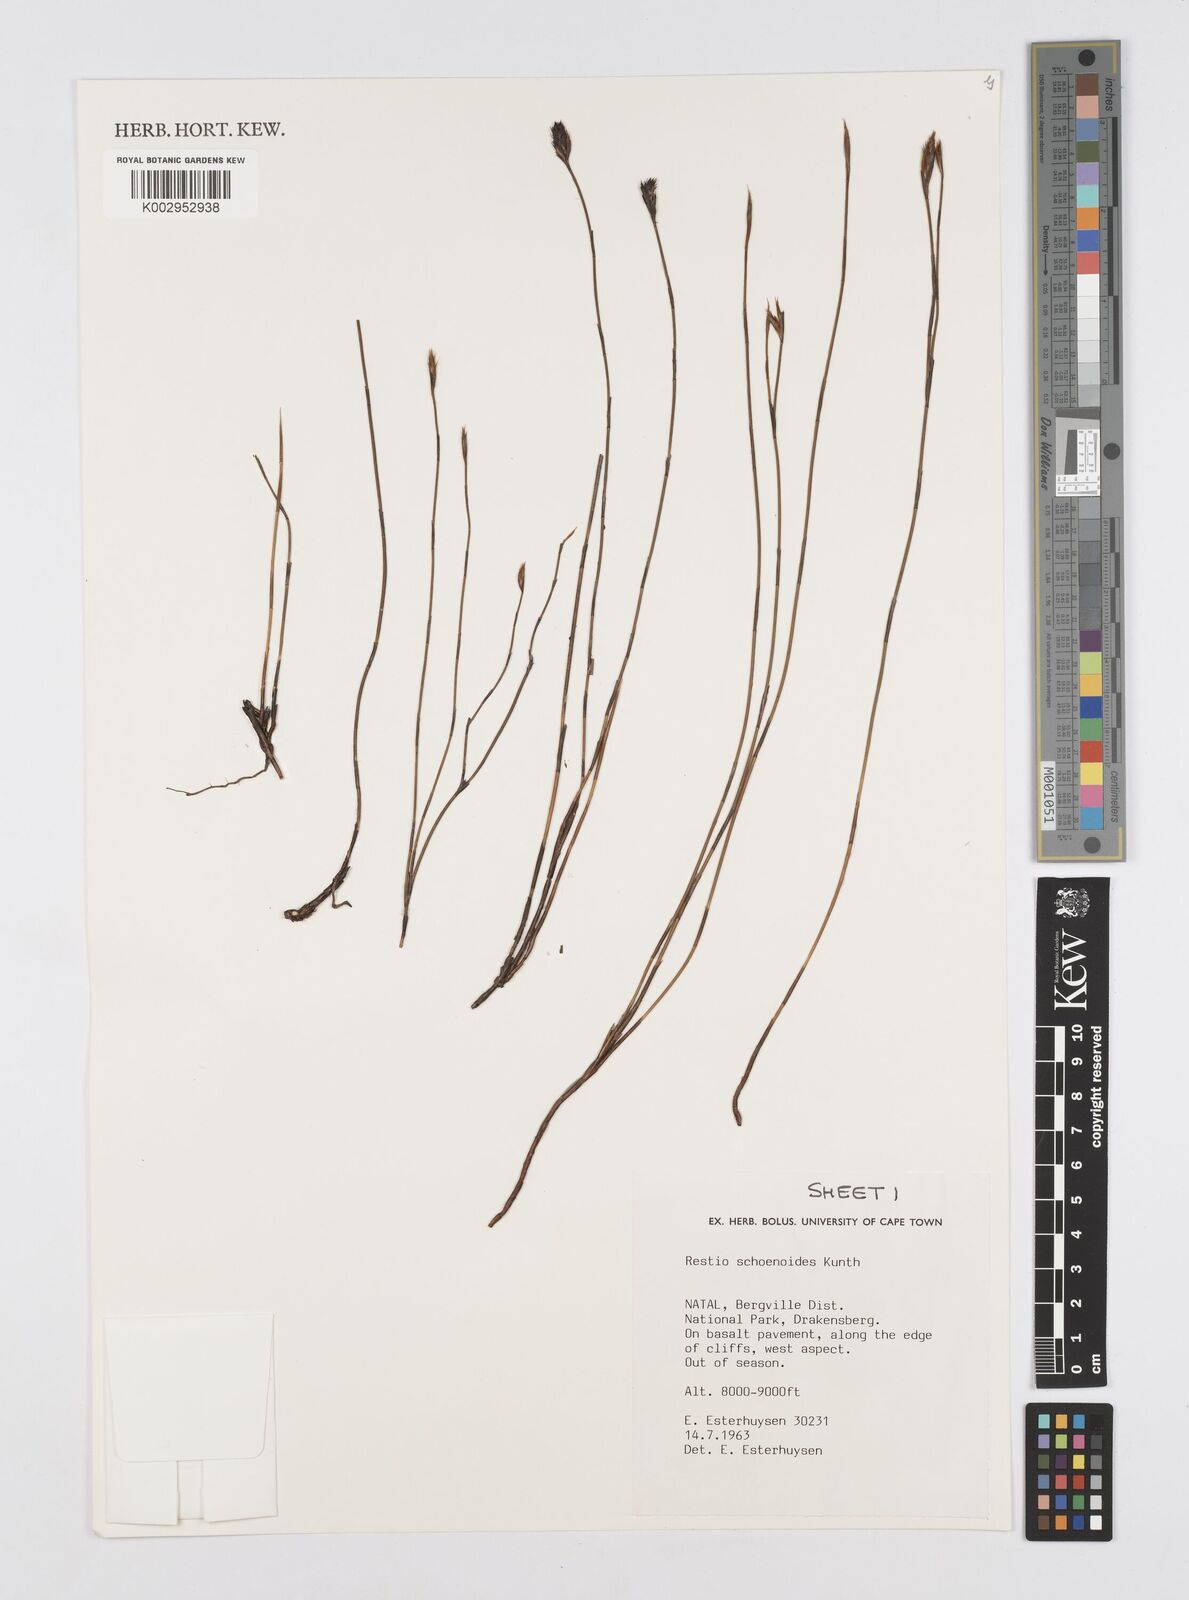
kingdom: Plantae
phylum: Tracheophyta
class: Liliopsida
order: Poales
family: Restionaceae
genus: Restio
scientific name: Restio schoenoides
